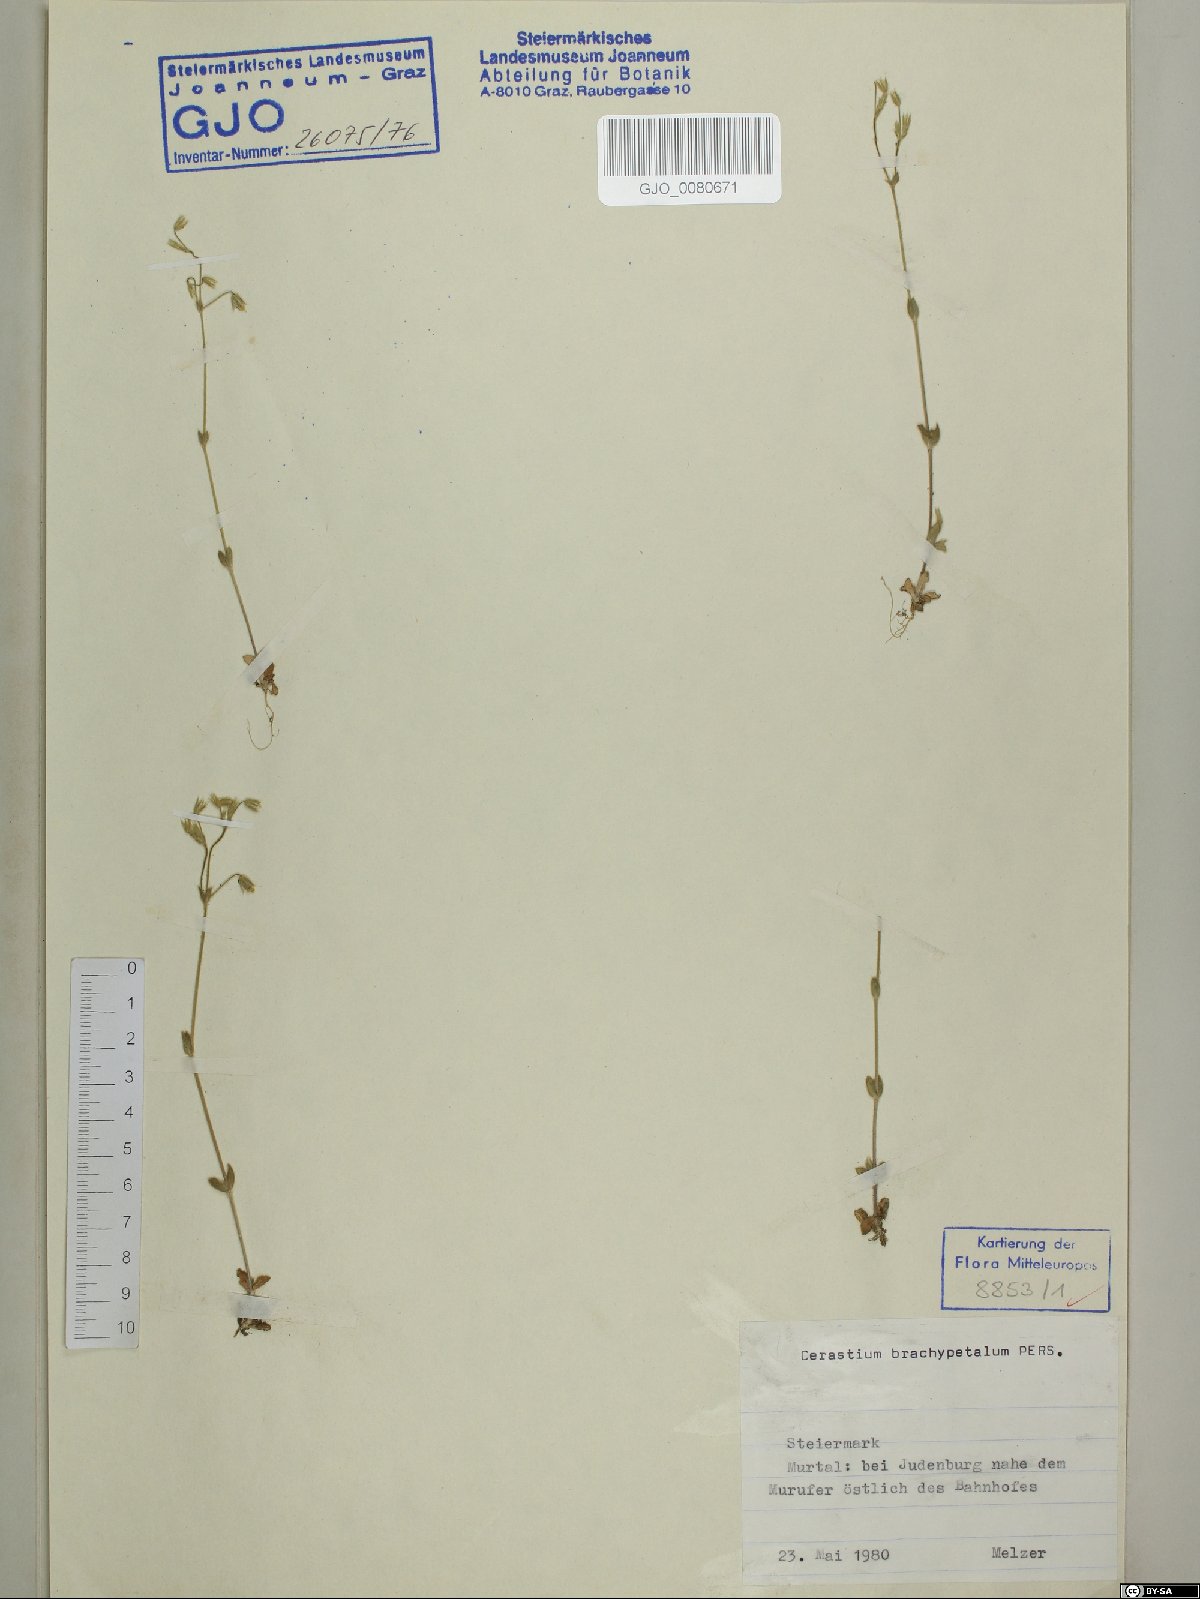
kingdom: Plantae
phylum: Tracheophyta
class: Magnoliopsida
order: Caryophyllales
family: Caryophyllaceae
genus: Cerastium
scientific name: Cerastium brachypetalum
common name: Grey mouse-ear
